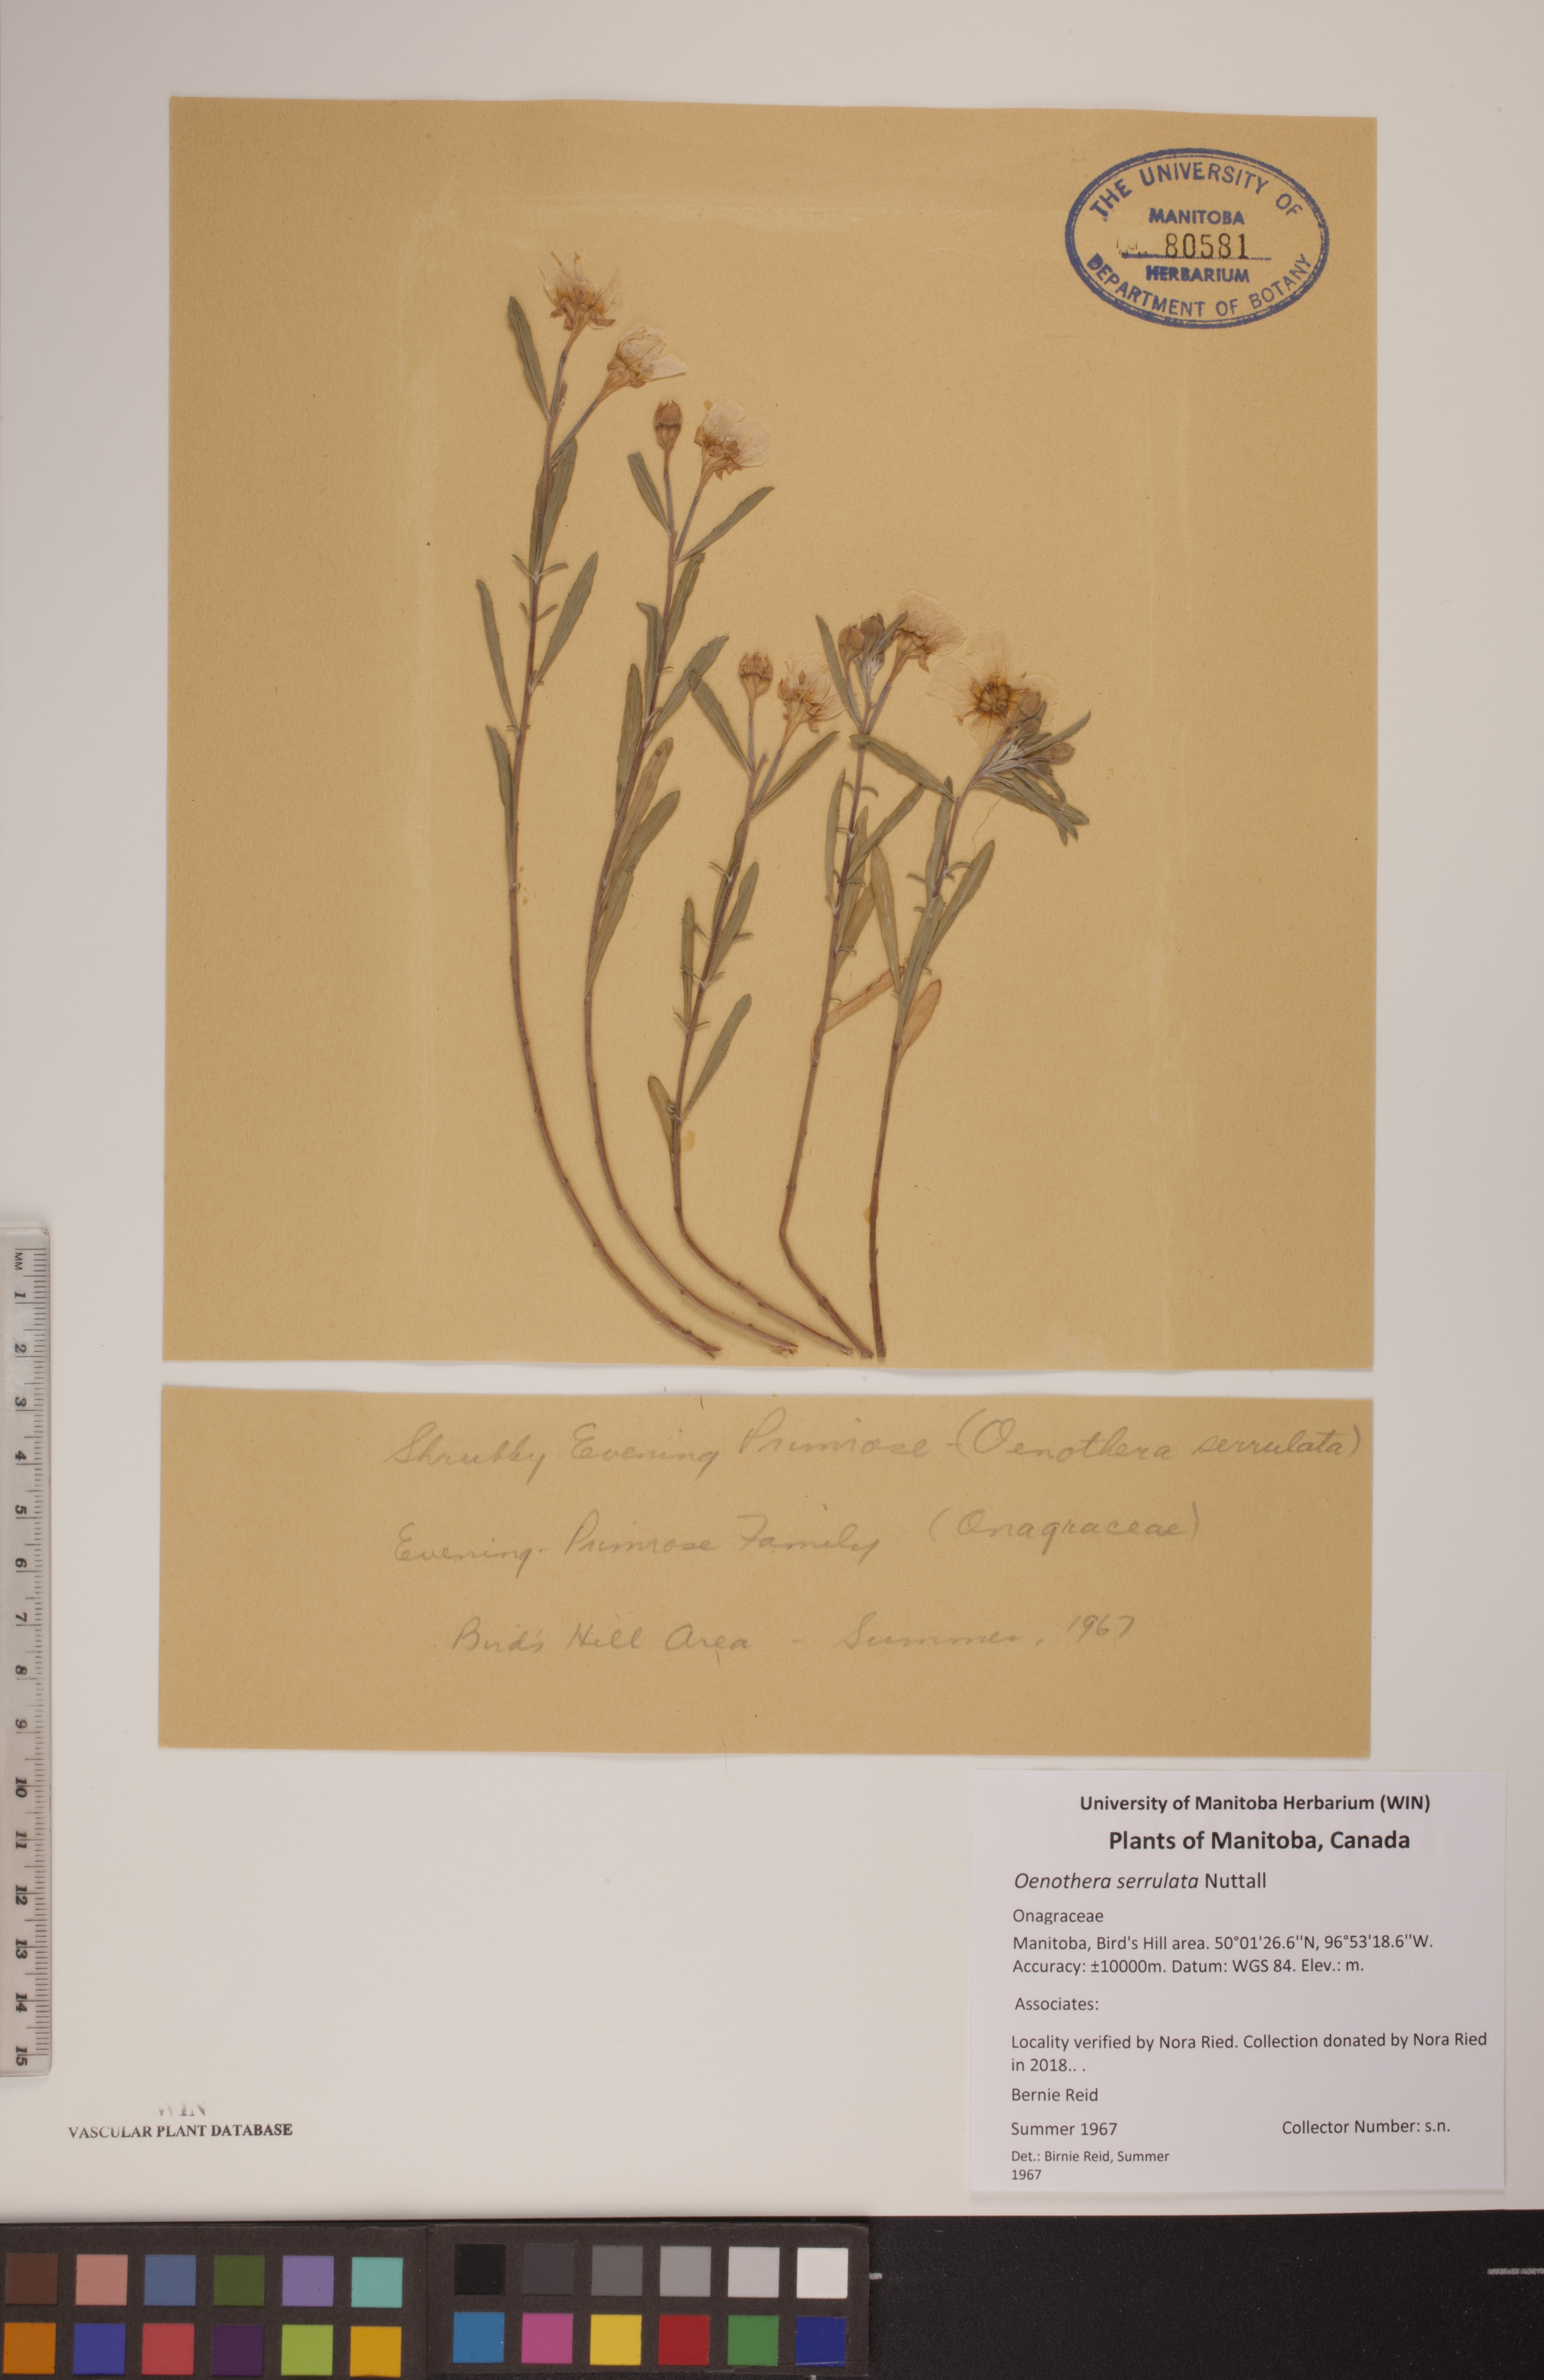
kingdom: Plantae
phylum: Tracheophyta
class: Magnoliopsida
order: Myrtales
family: Onagraceae
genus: Oenothera
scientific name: Oenothera serrulata
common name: Half-shrub calylophus
